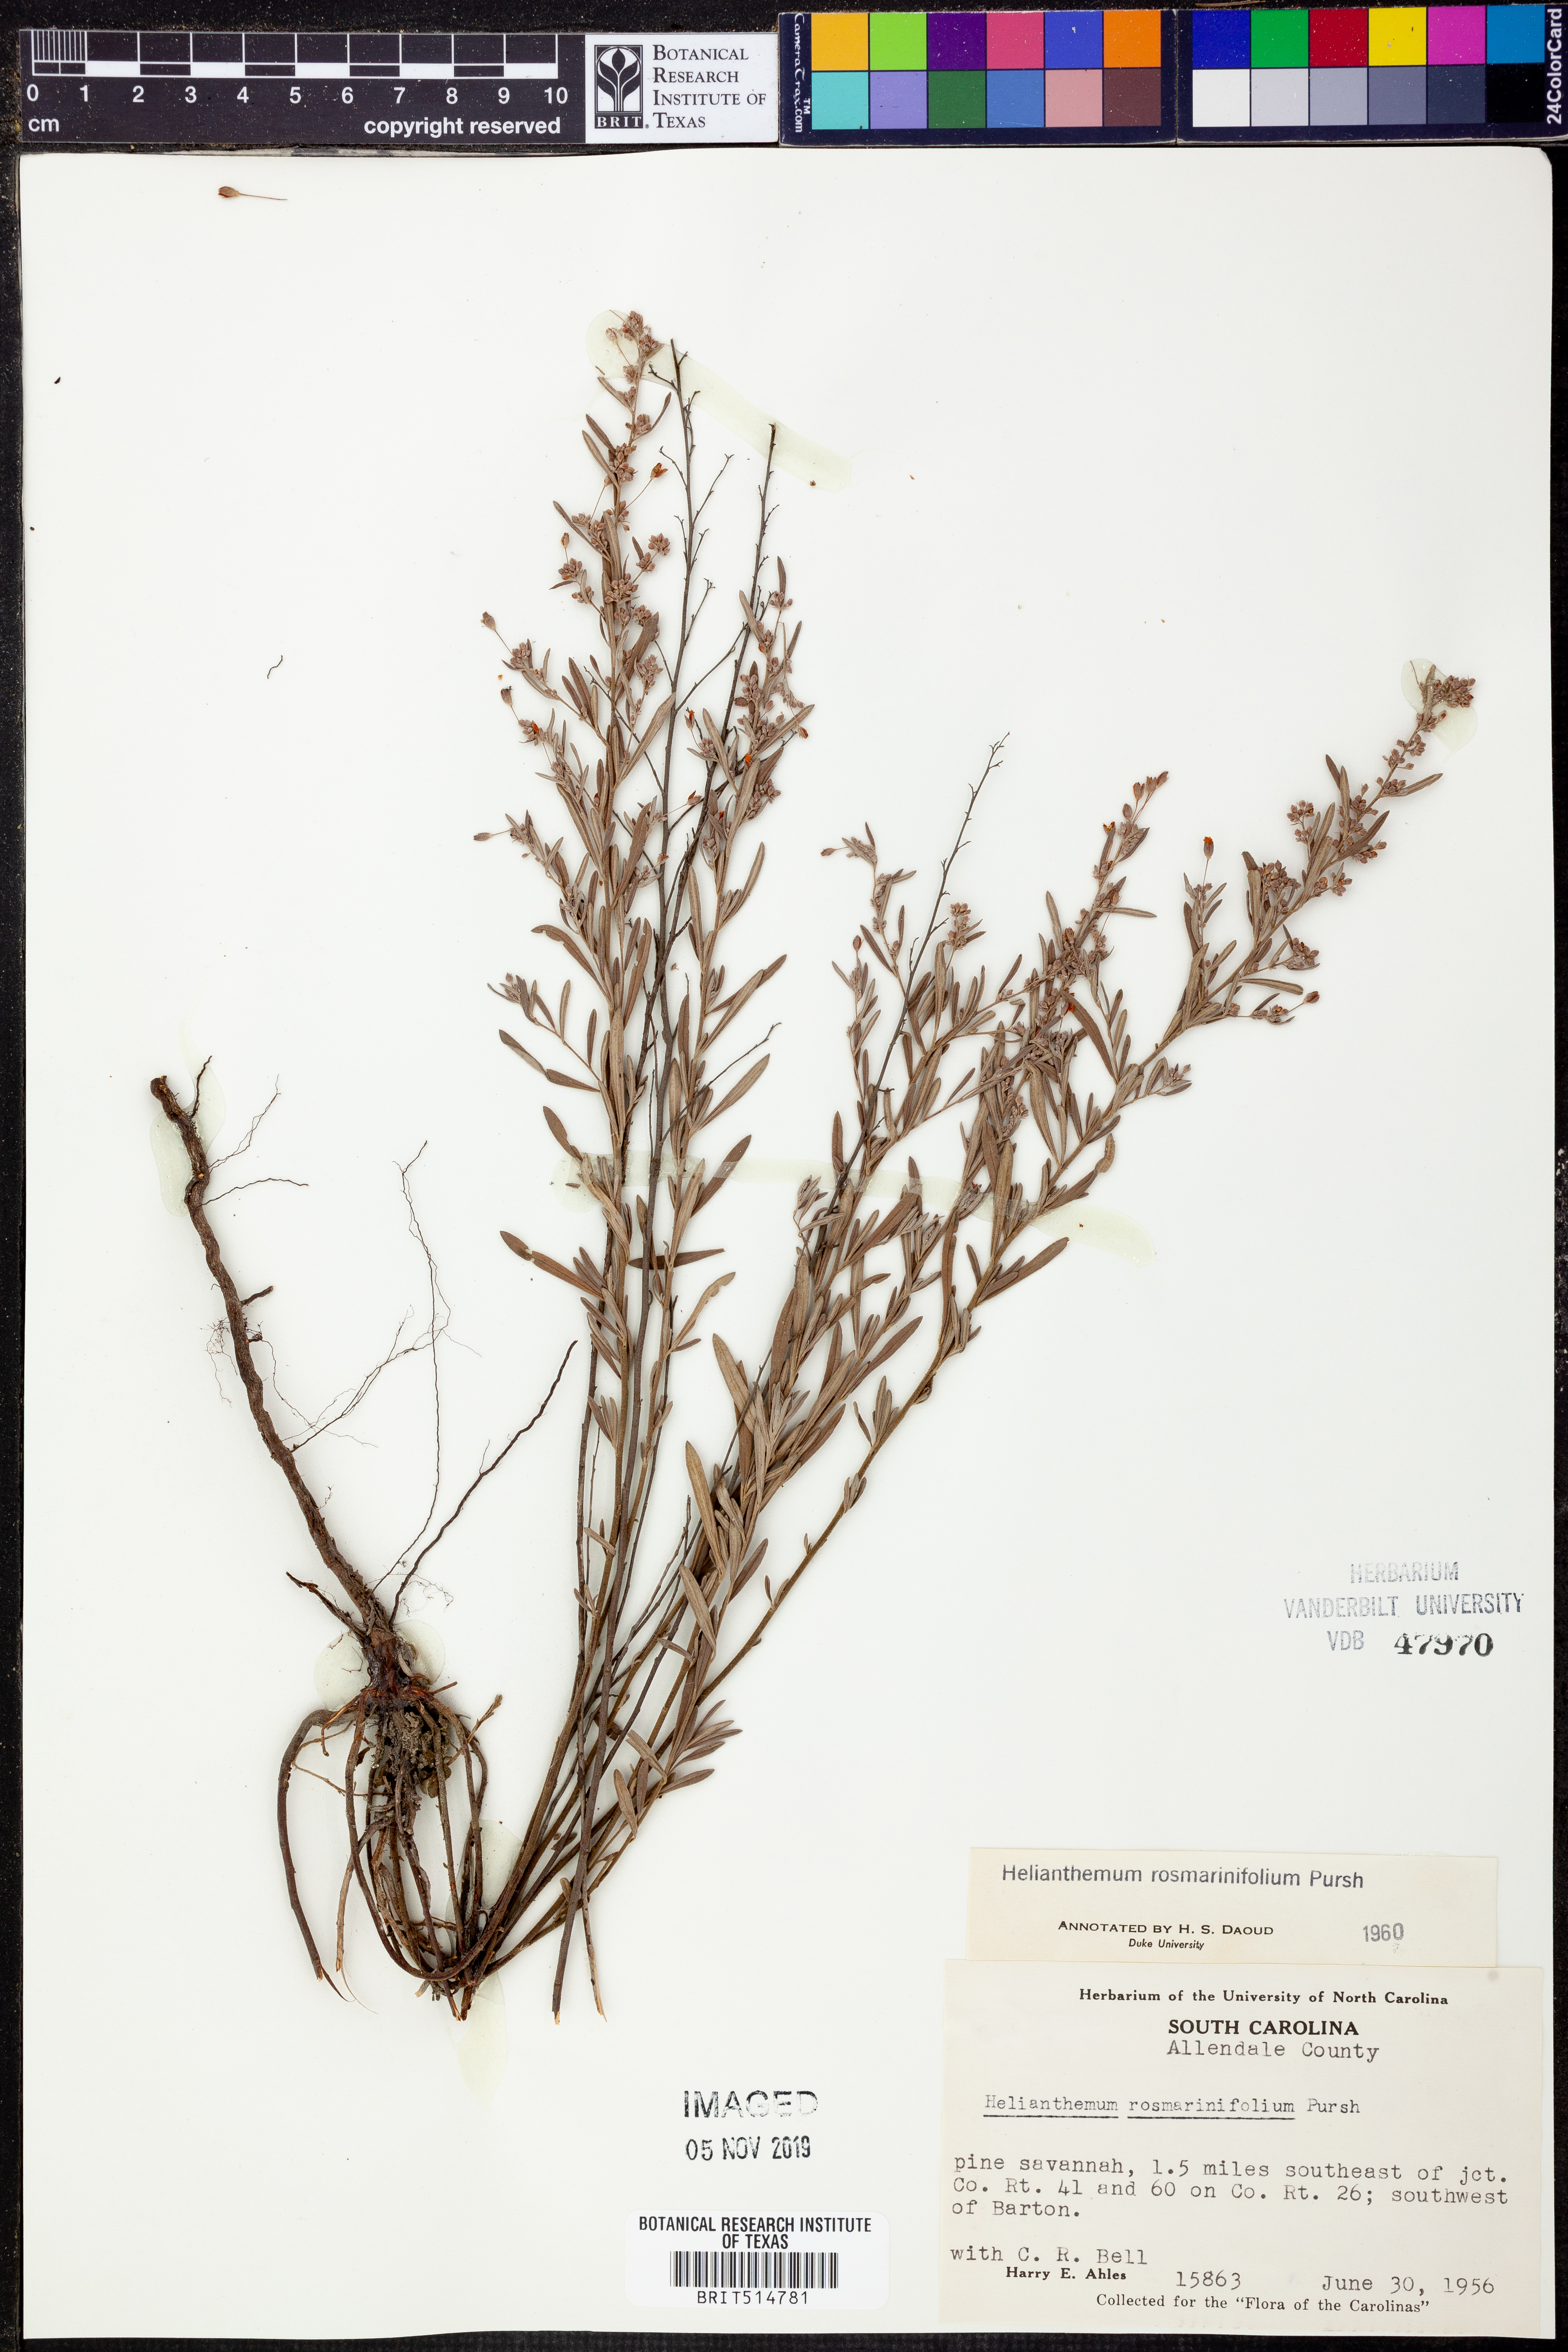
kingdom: Plantae
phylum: Tracheophyta
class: Magnoliopsida
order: Malvales
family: Cistaceae
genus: Crocanthemum
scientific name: Crocanthemum rosmarinifolium
